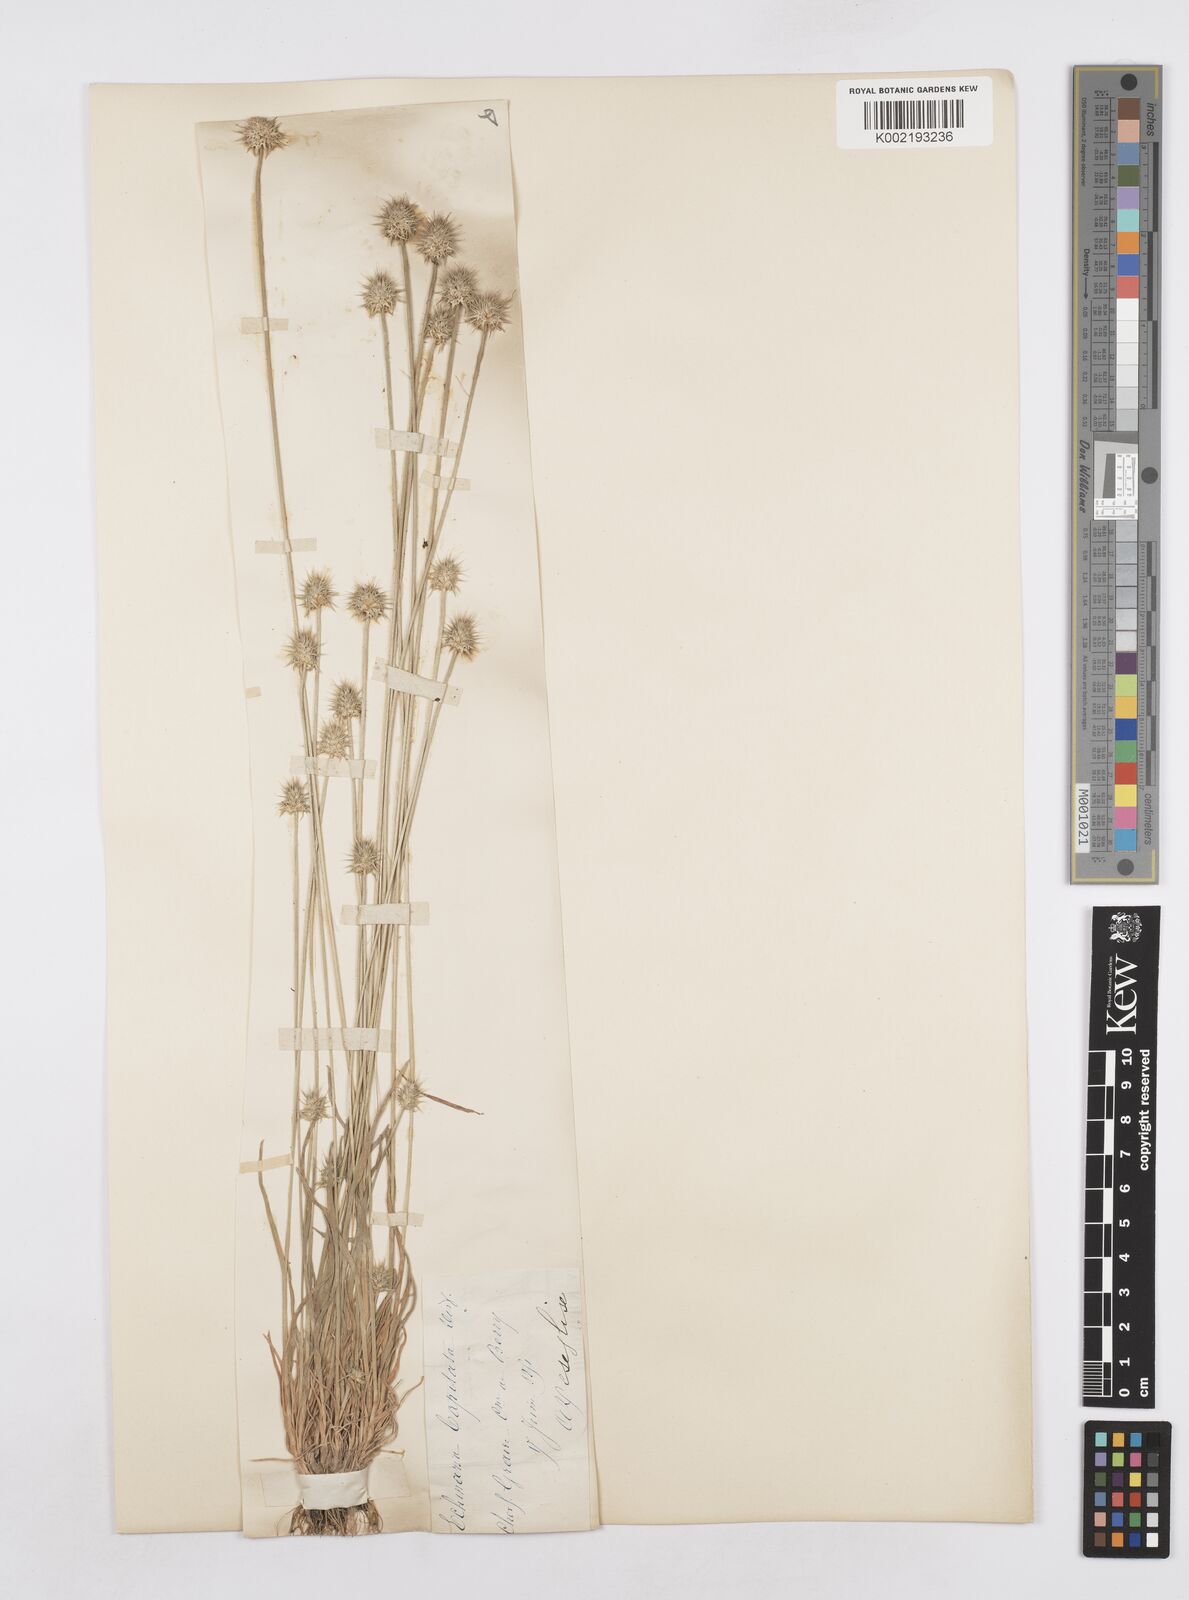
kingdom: Plantae
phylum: Tracheophyta
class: Liliopsida
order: Poales
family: Poaceae
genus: Echinaria
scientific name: Echinaria capitata
